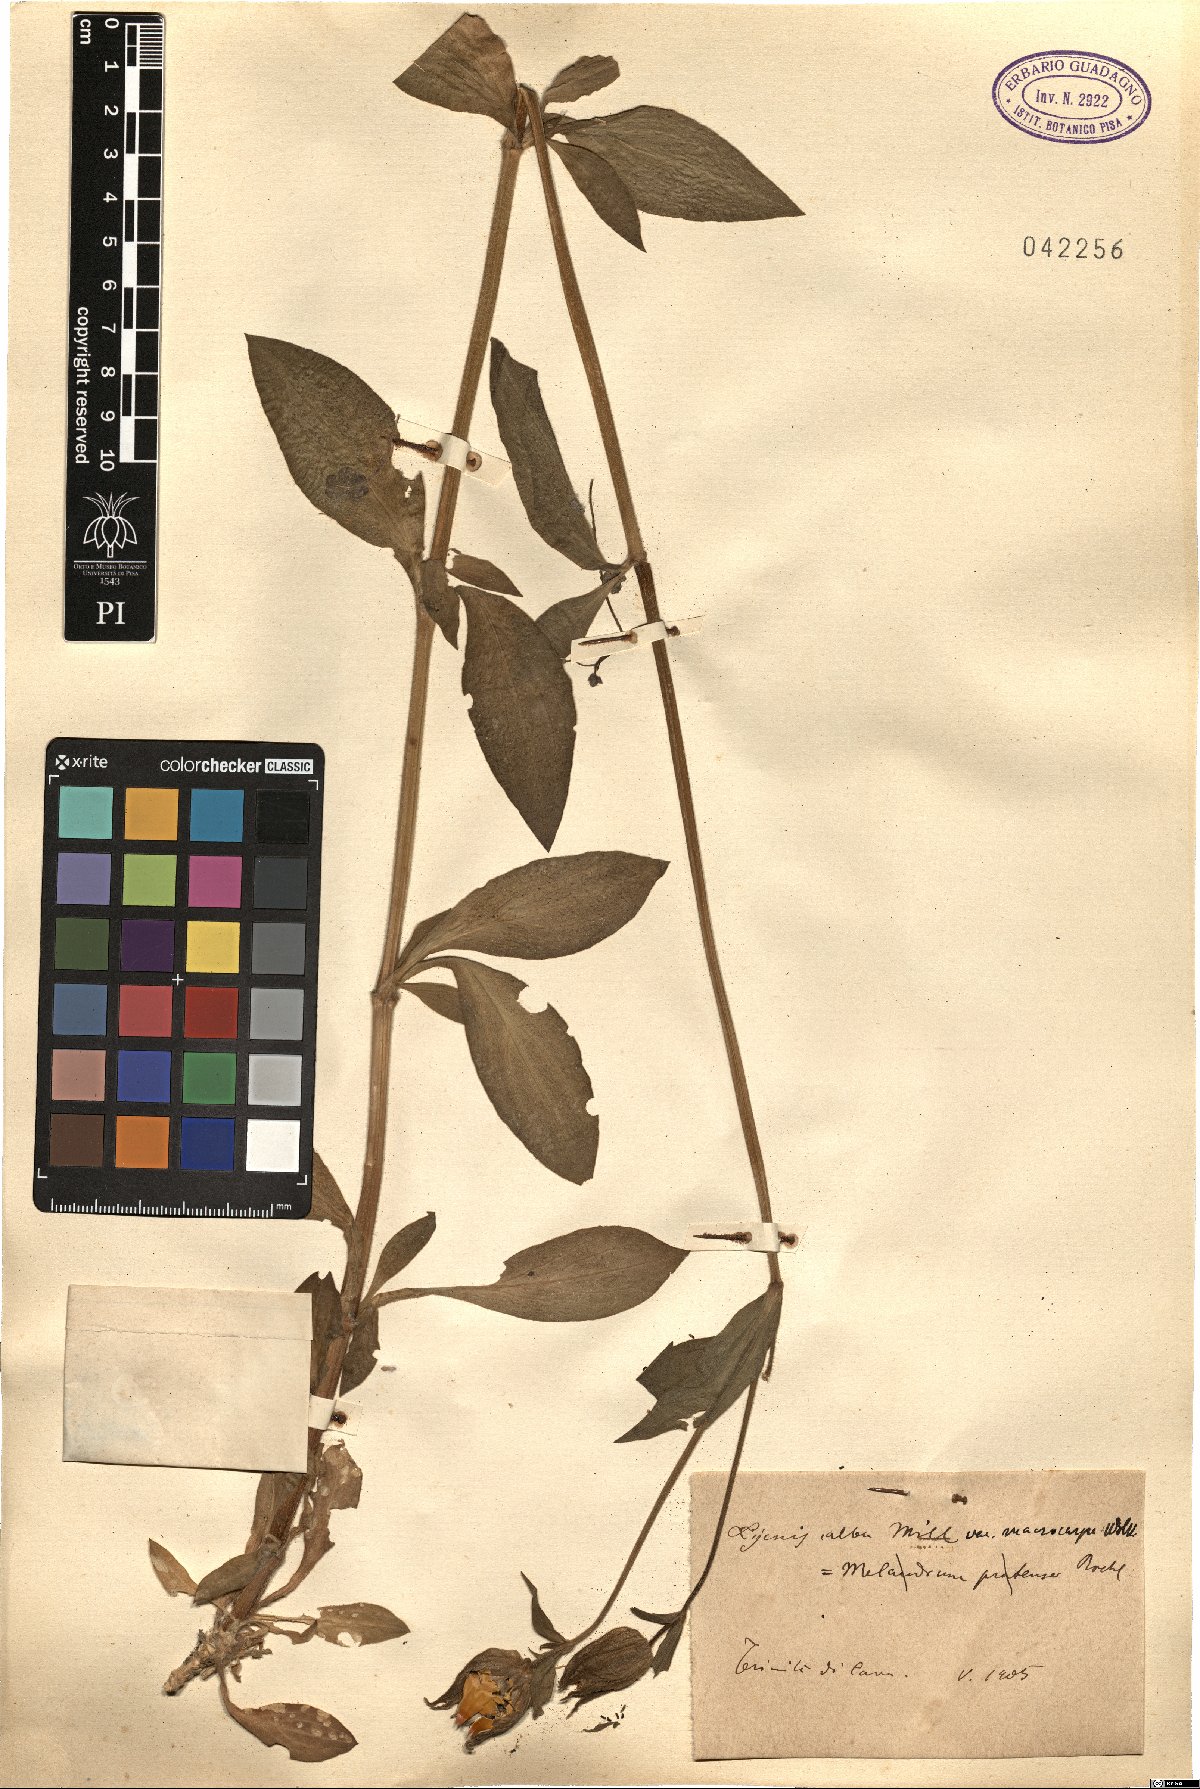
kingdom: Plantae
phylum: Tracheophyta
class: Magnoliopsida
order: Caryophyllales
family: Caryophyllaceae
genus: Silene
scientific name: Silene latifolia
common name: White campion
